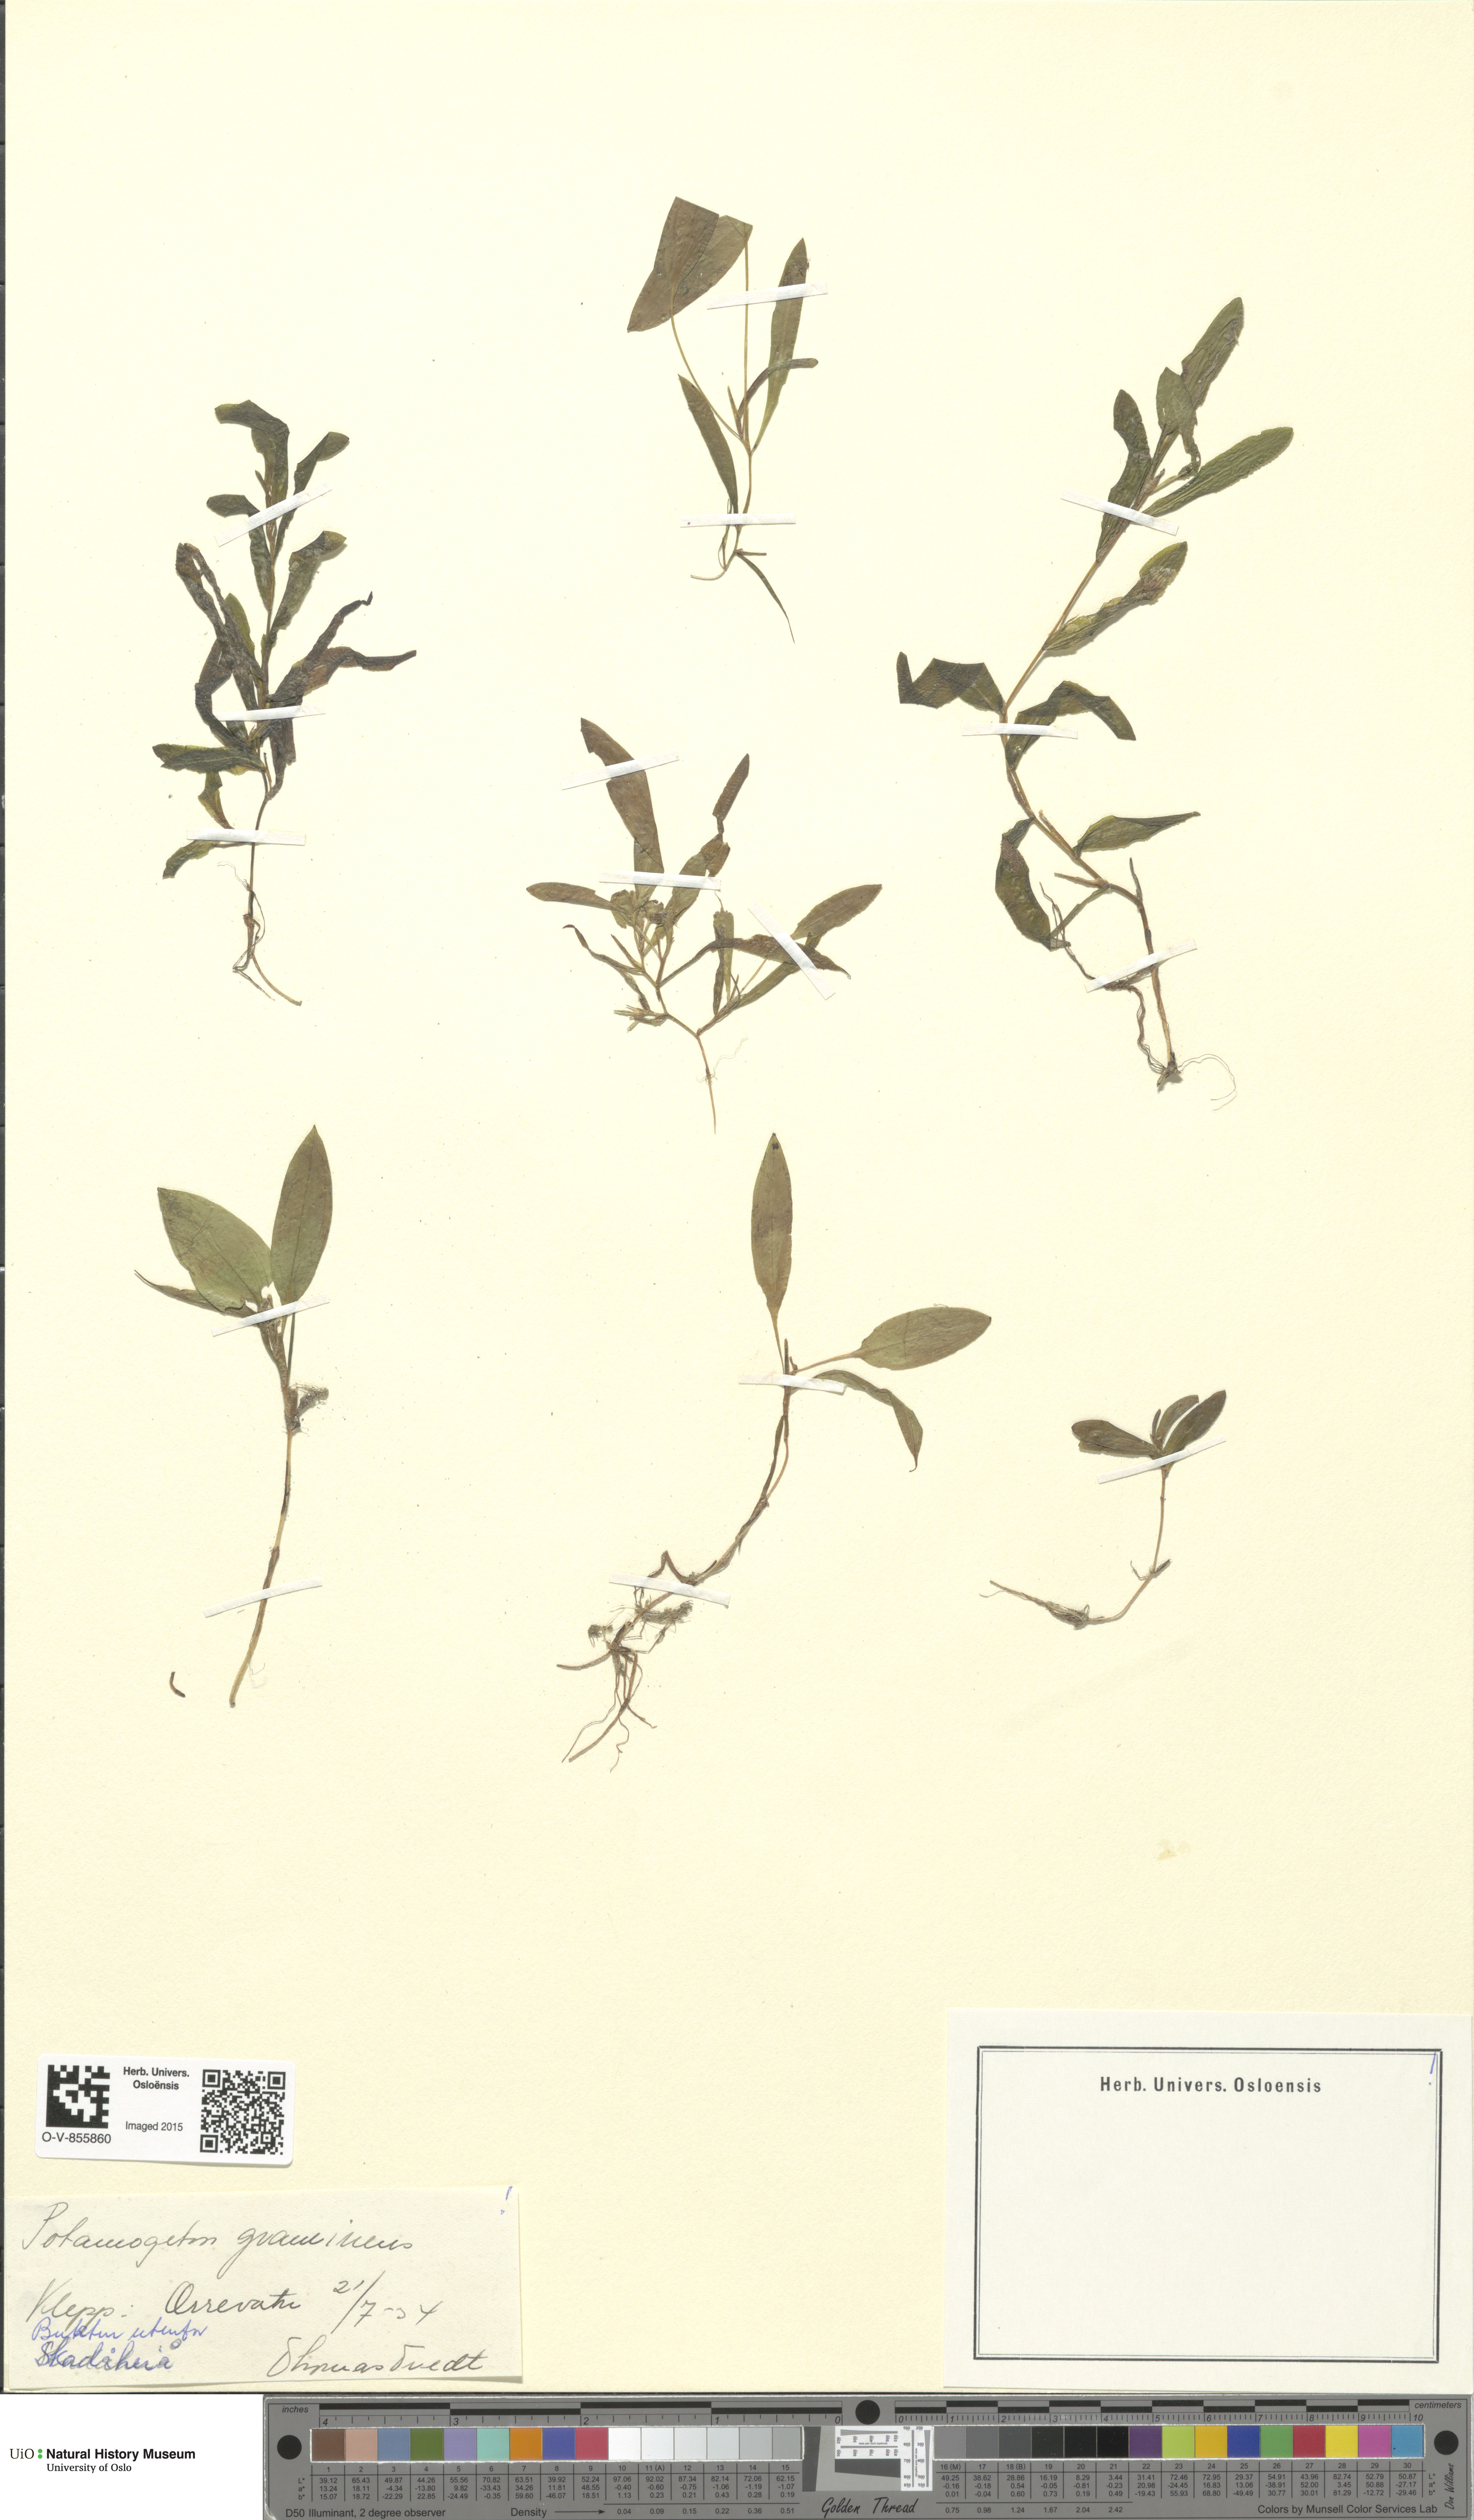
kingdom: Plantae
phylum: Tracheophyta
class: Liliopsida
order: Alismatales
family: Potamogetonaceae
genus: Potamogeton
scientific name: Potamogeton gramineus
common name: Various-leaved pondweed
